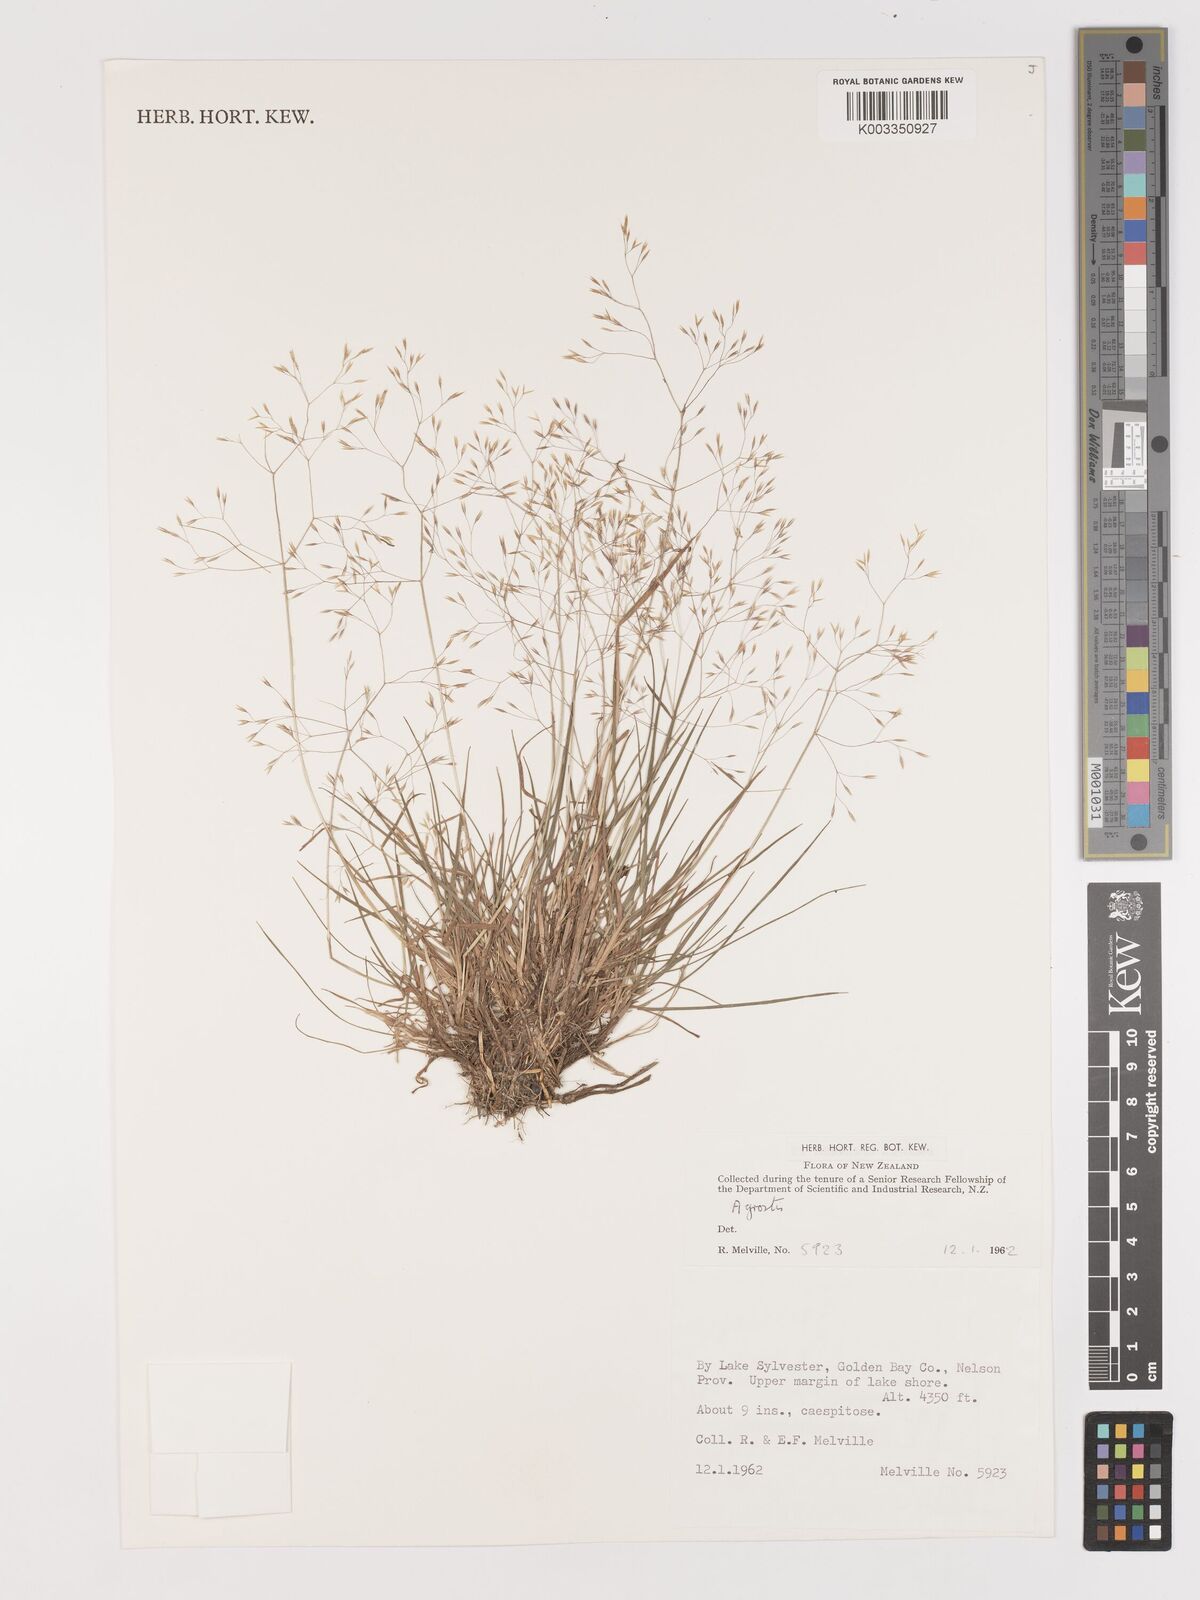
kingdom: Plantae
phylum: Tracheophyta
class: Liliopsida
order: Poales
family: Poaceae
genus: Lachnagrostis
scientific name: Lachnagrostis
